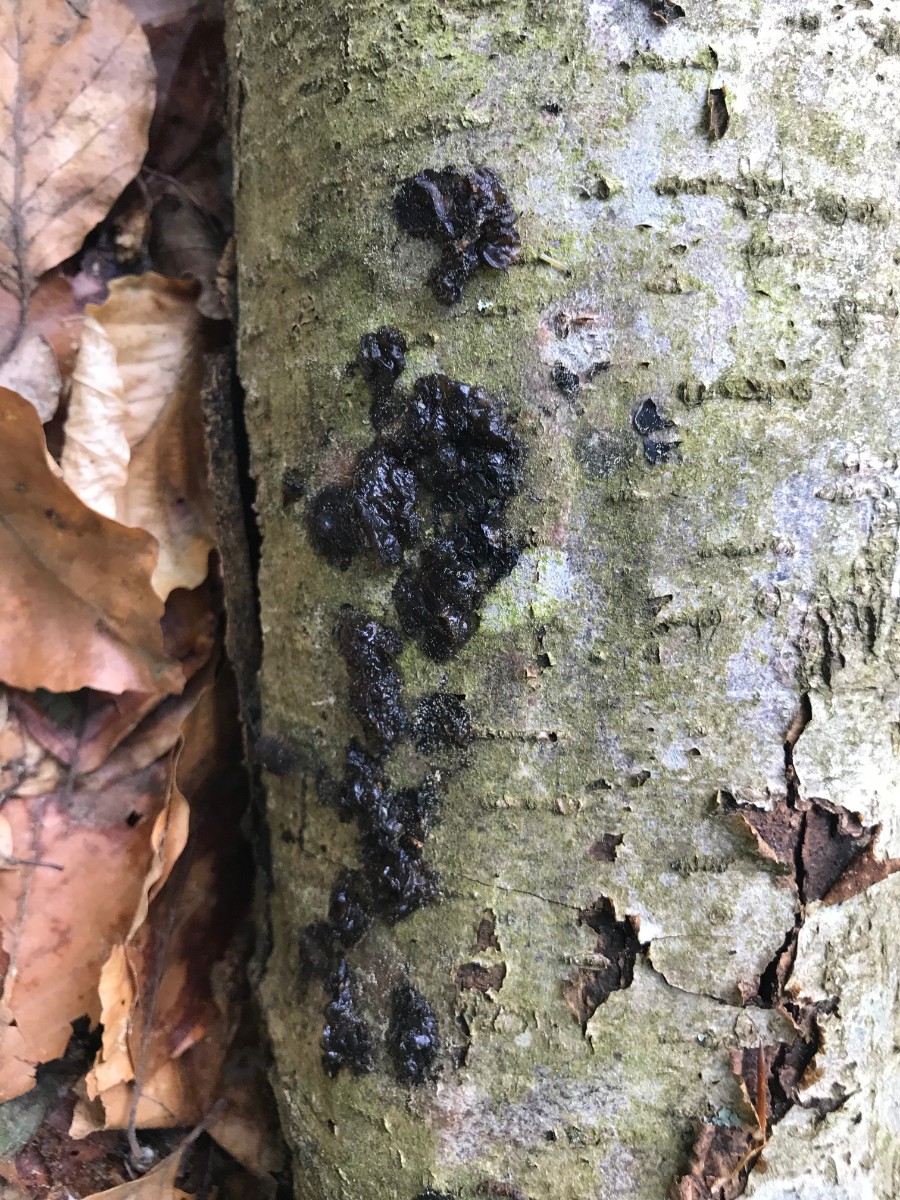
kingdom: Fungi
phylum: Basidiomycota
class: Agaricomycetes
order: Auriculariales
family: Auriculariaceae
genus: Exidia
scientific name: Exidia nigricans
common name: almindelig bævretop
